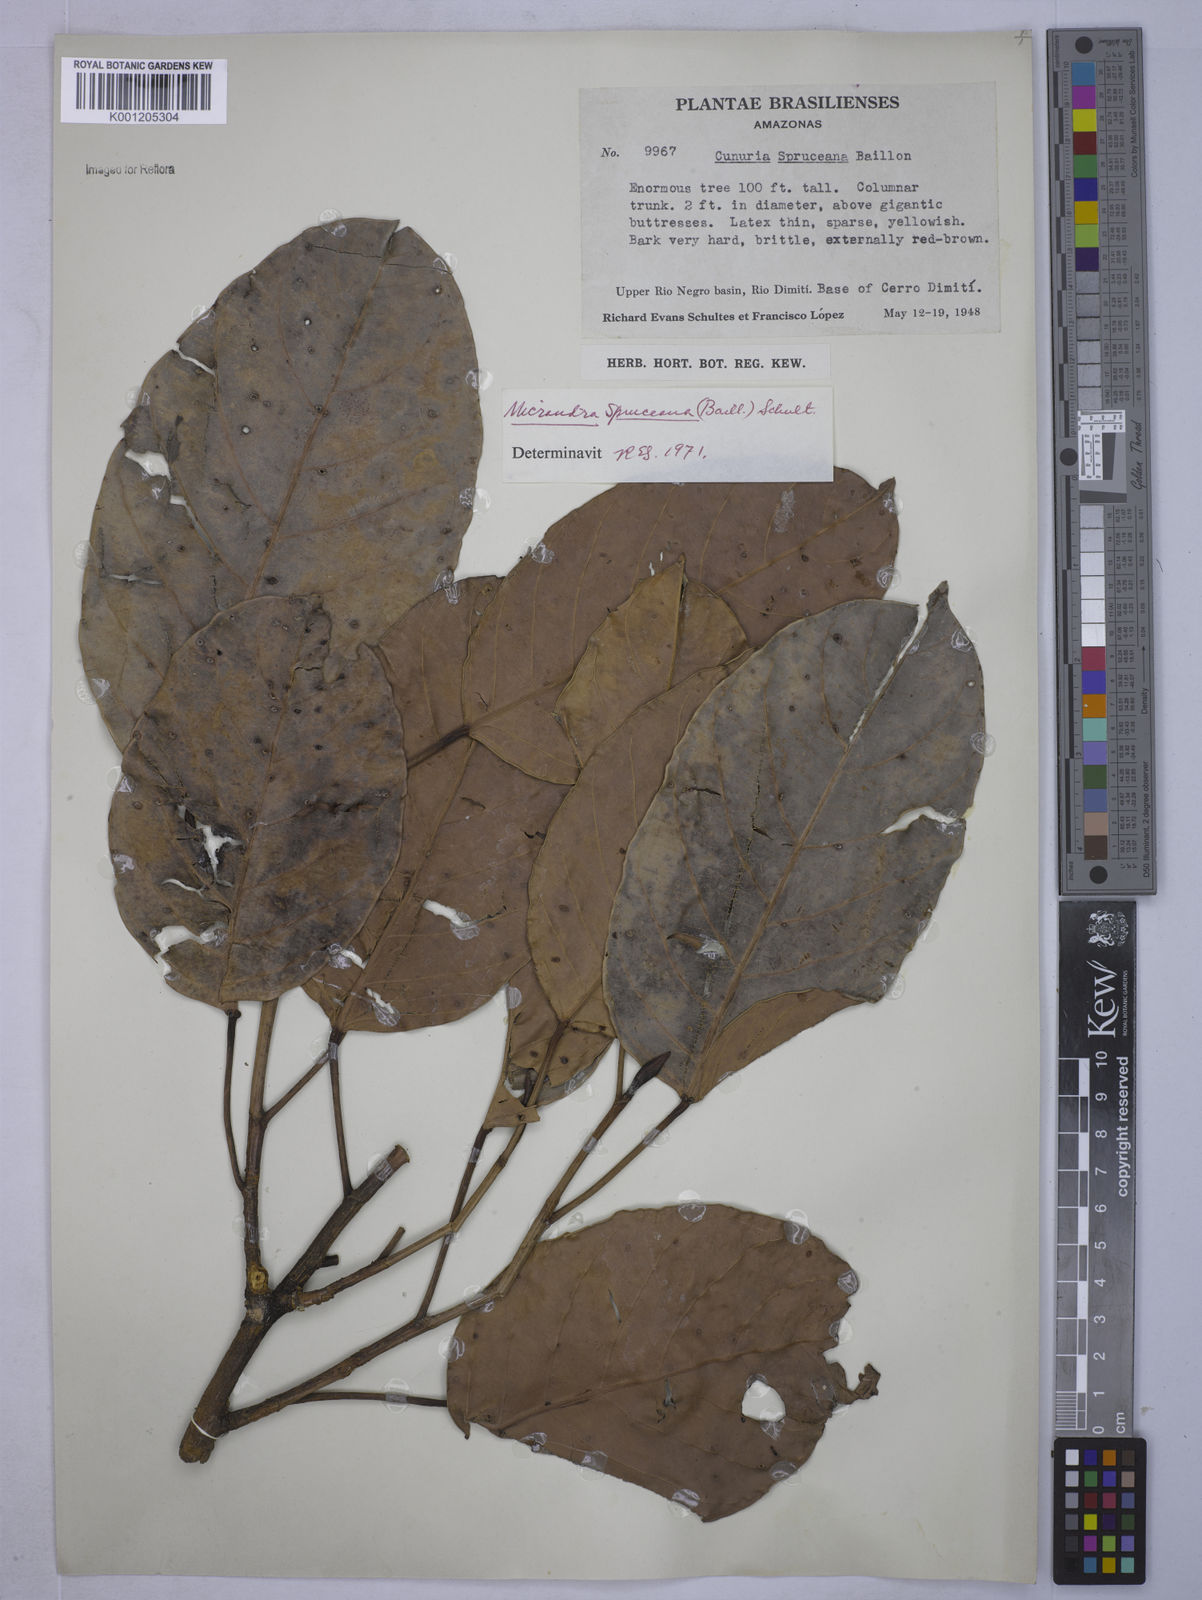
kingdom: Plantae
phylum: Tracheophyta
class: Magnoliopsida
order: Malpighiales
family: Euphorbiaceae
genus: Micrandra
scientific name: Micrandra spruceana
